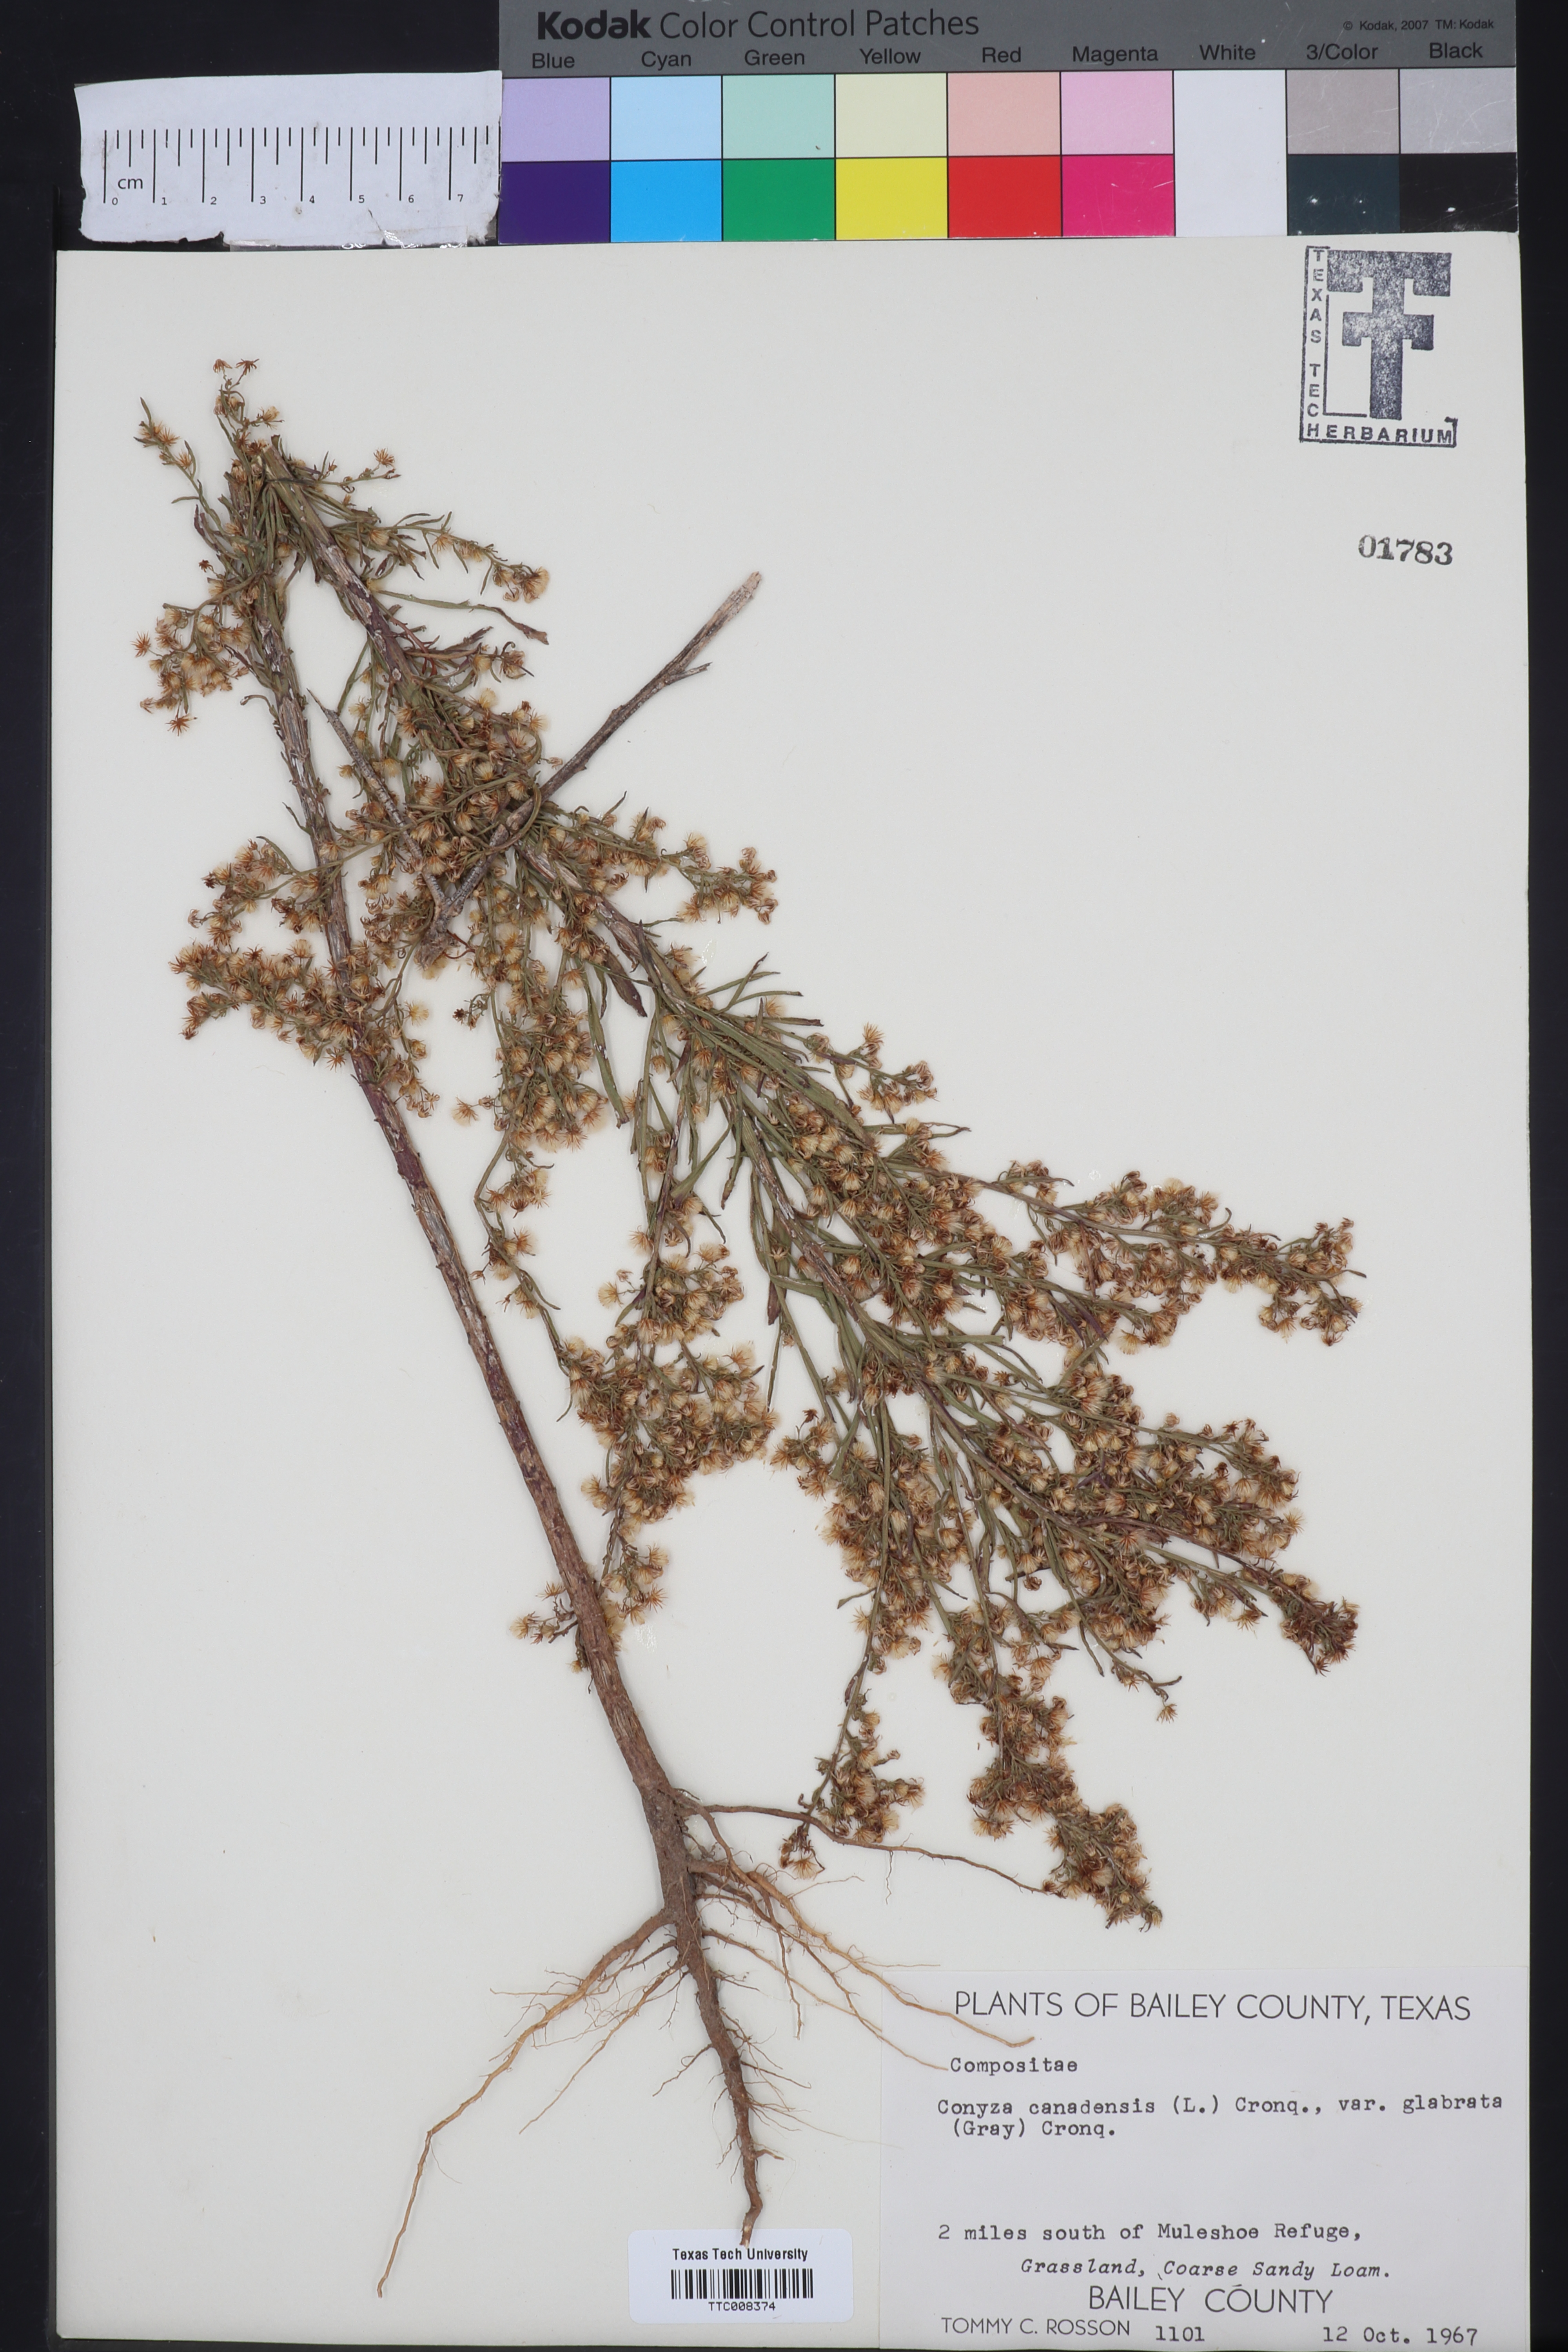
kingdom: Plantae
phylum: Tracheophyta
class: Magnoliopsida
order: Asterales
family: Asteraceae
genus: Erigeron
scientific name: Erigeron canadensis
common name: Canadian fleabane
